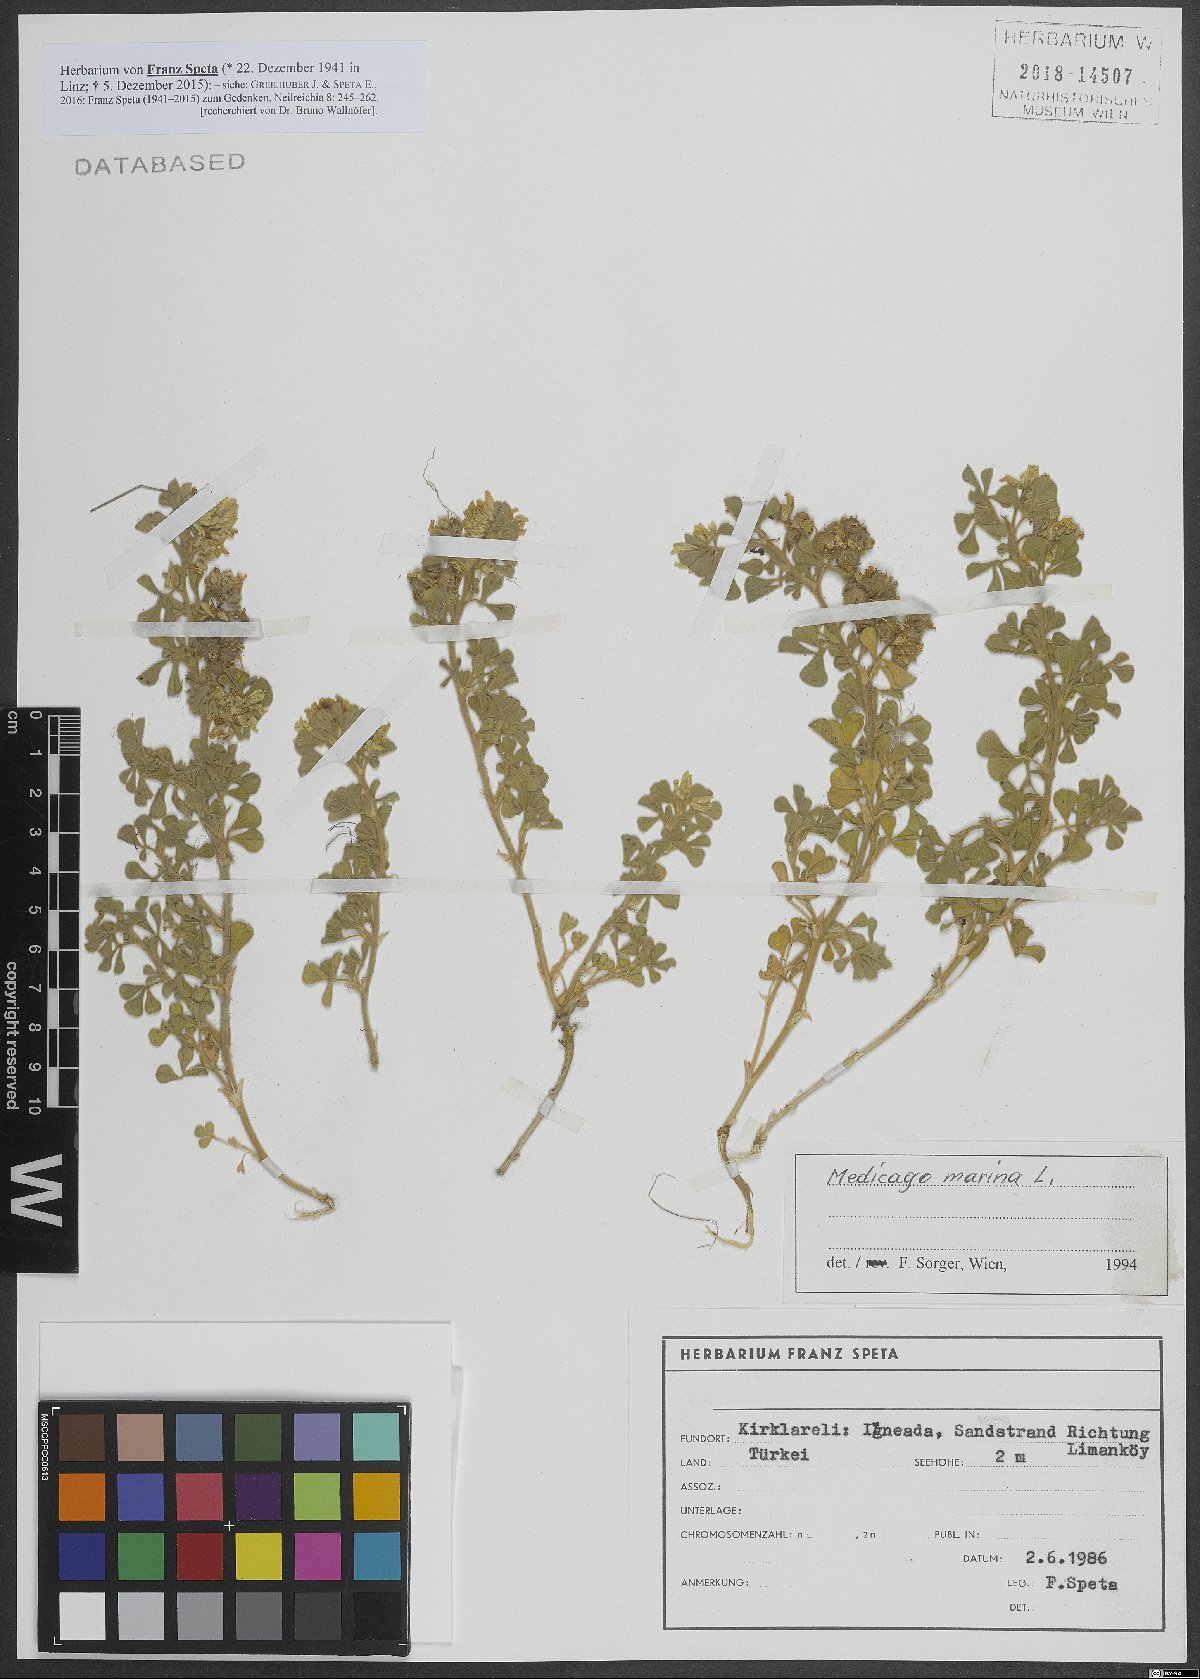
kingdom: Plantae
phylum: Tracheophyta
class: Magnoliopsida
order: Fabales
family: Fabaceae
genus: Medicago
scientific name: Medicago marina
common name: Sea medick
